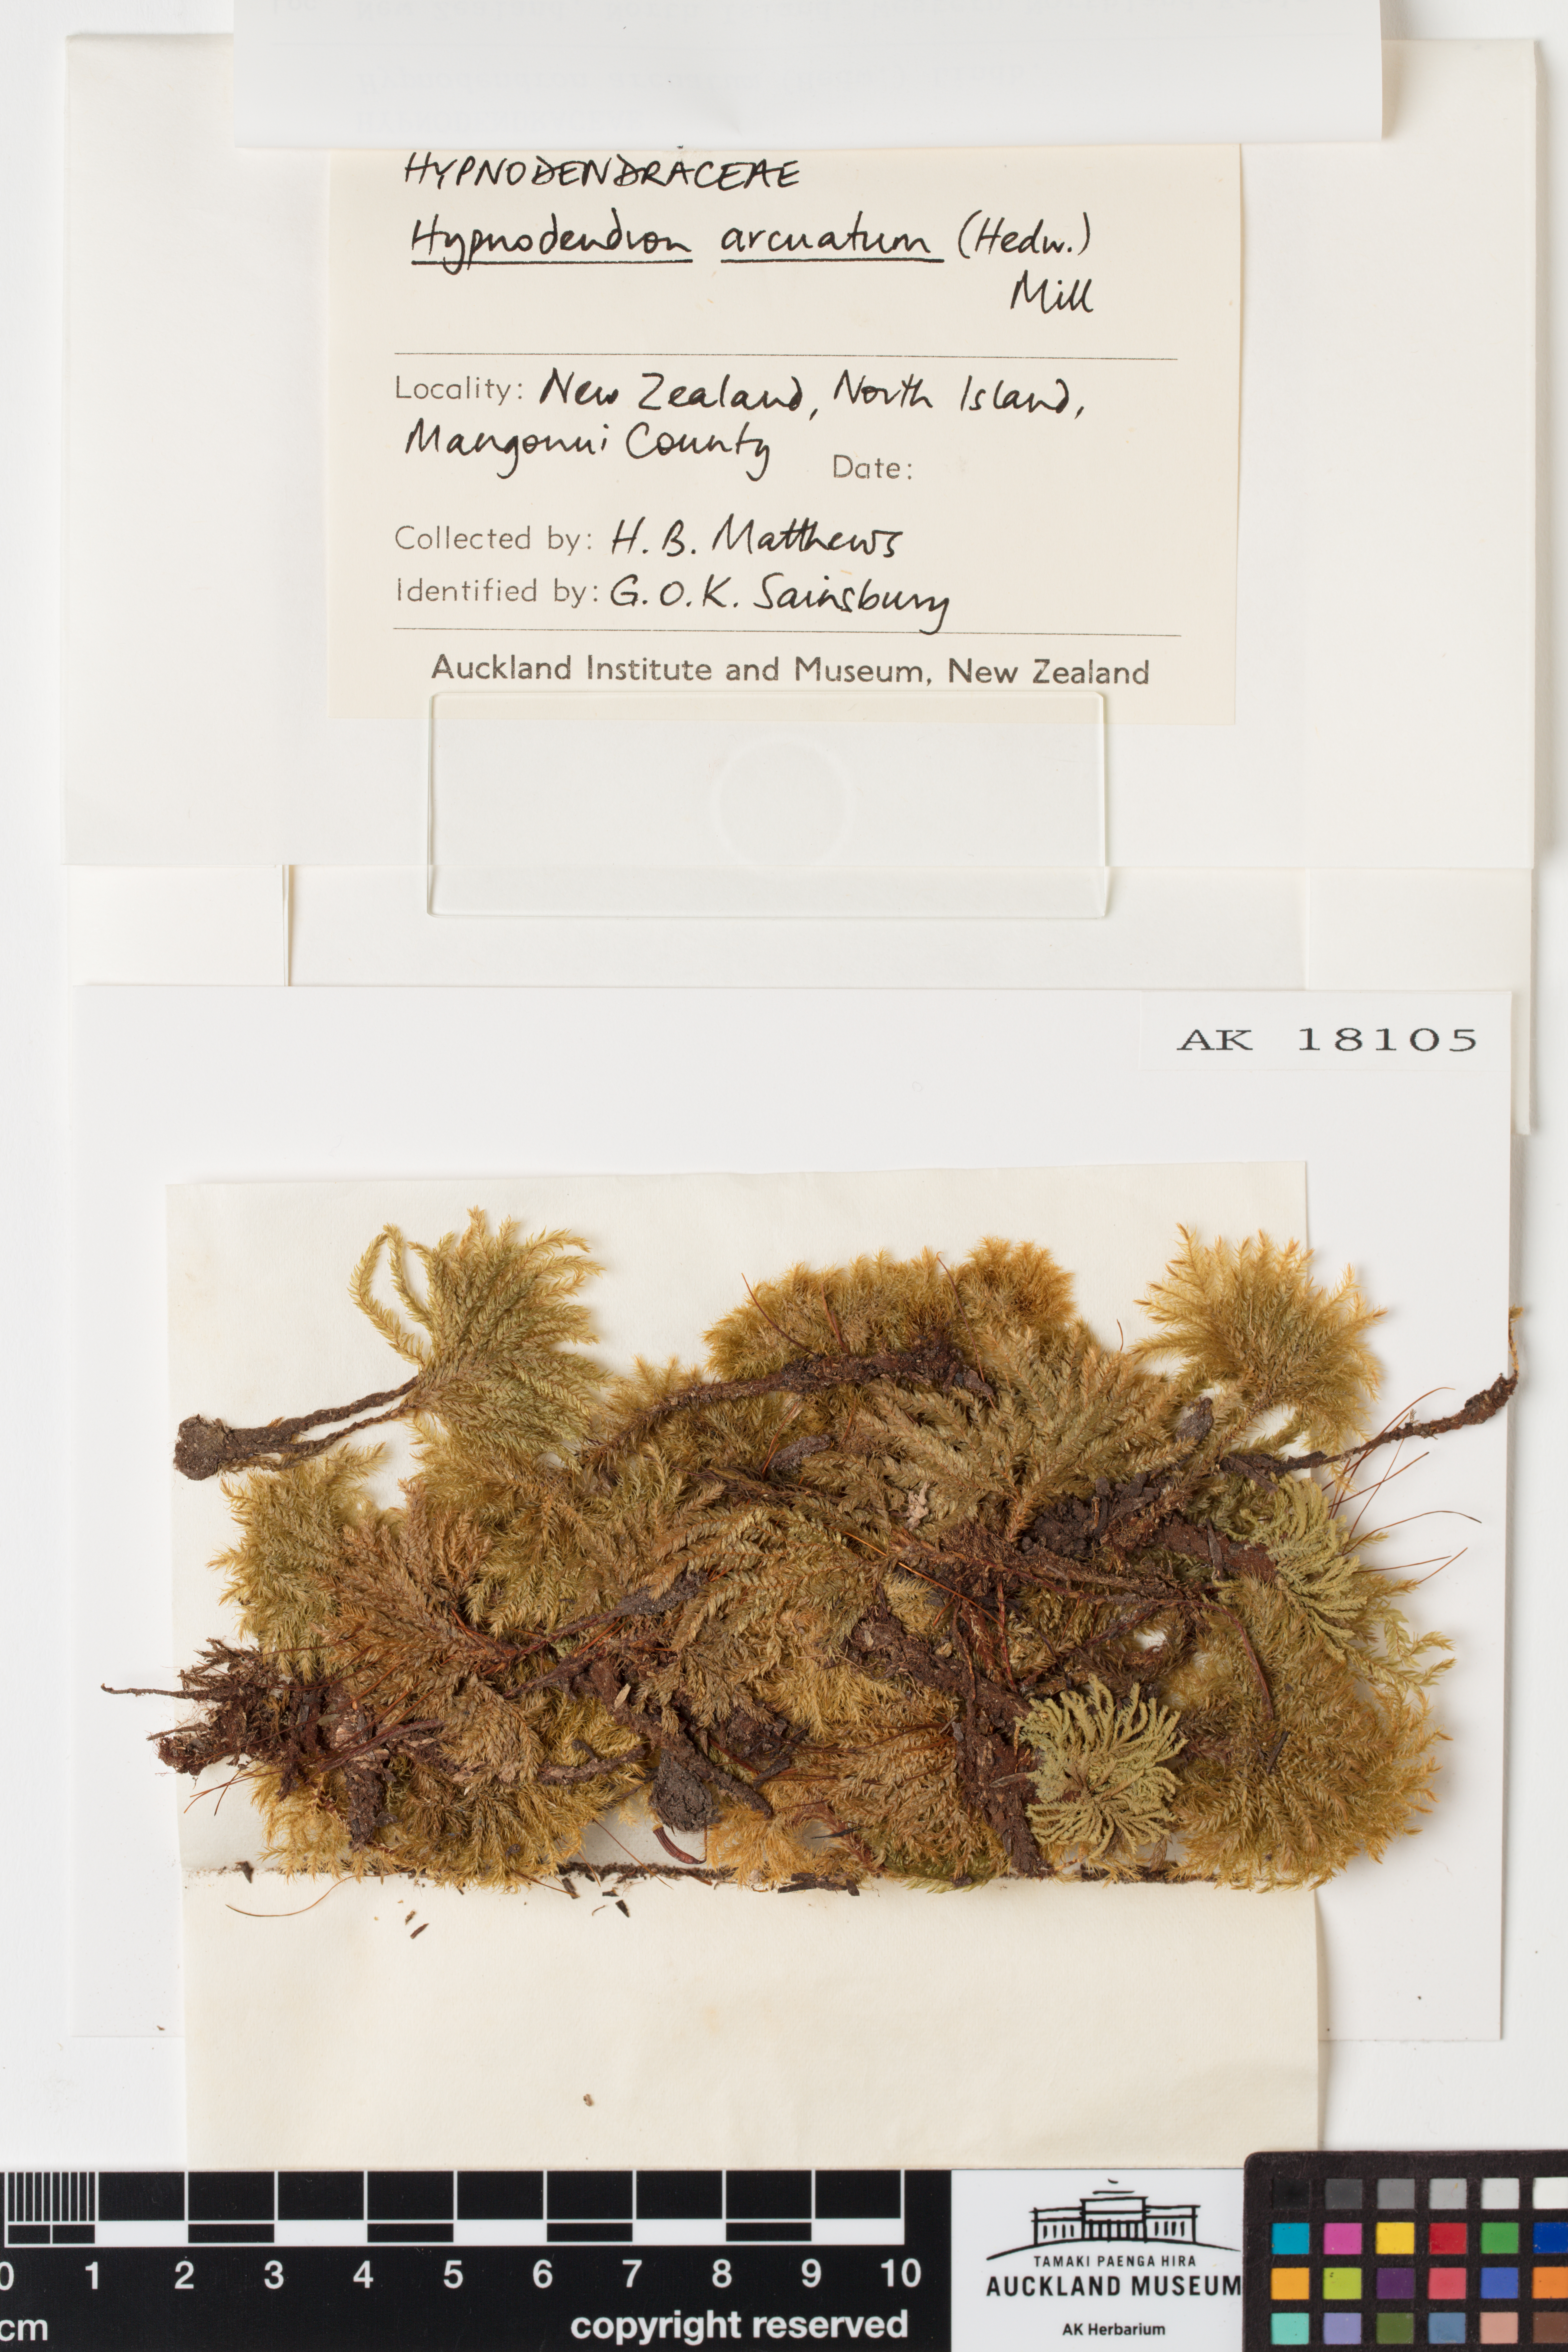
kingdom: Plantae
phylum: Bryophyta
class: Bryopsida
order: Hypnodendrales
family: Spiridentaceae
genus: Hypnodendron
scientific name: Hypnodendron arcuatum
